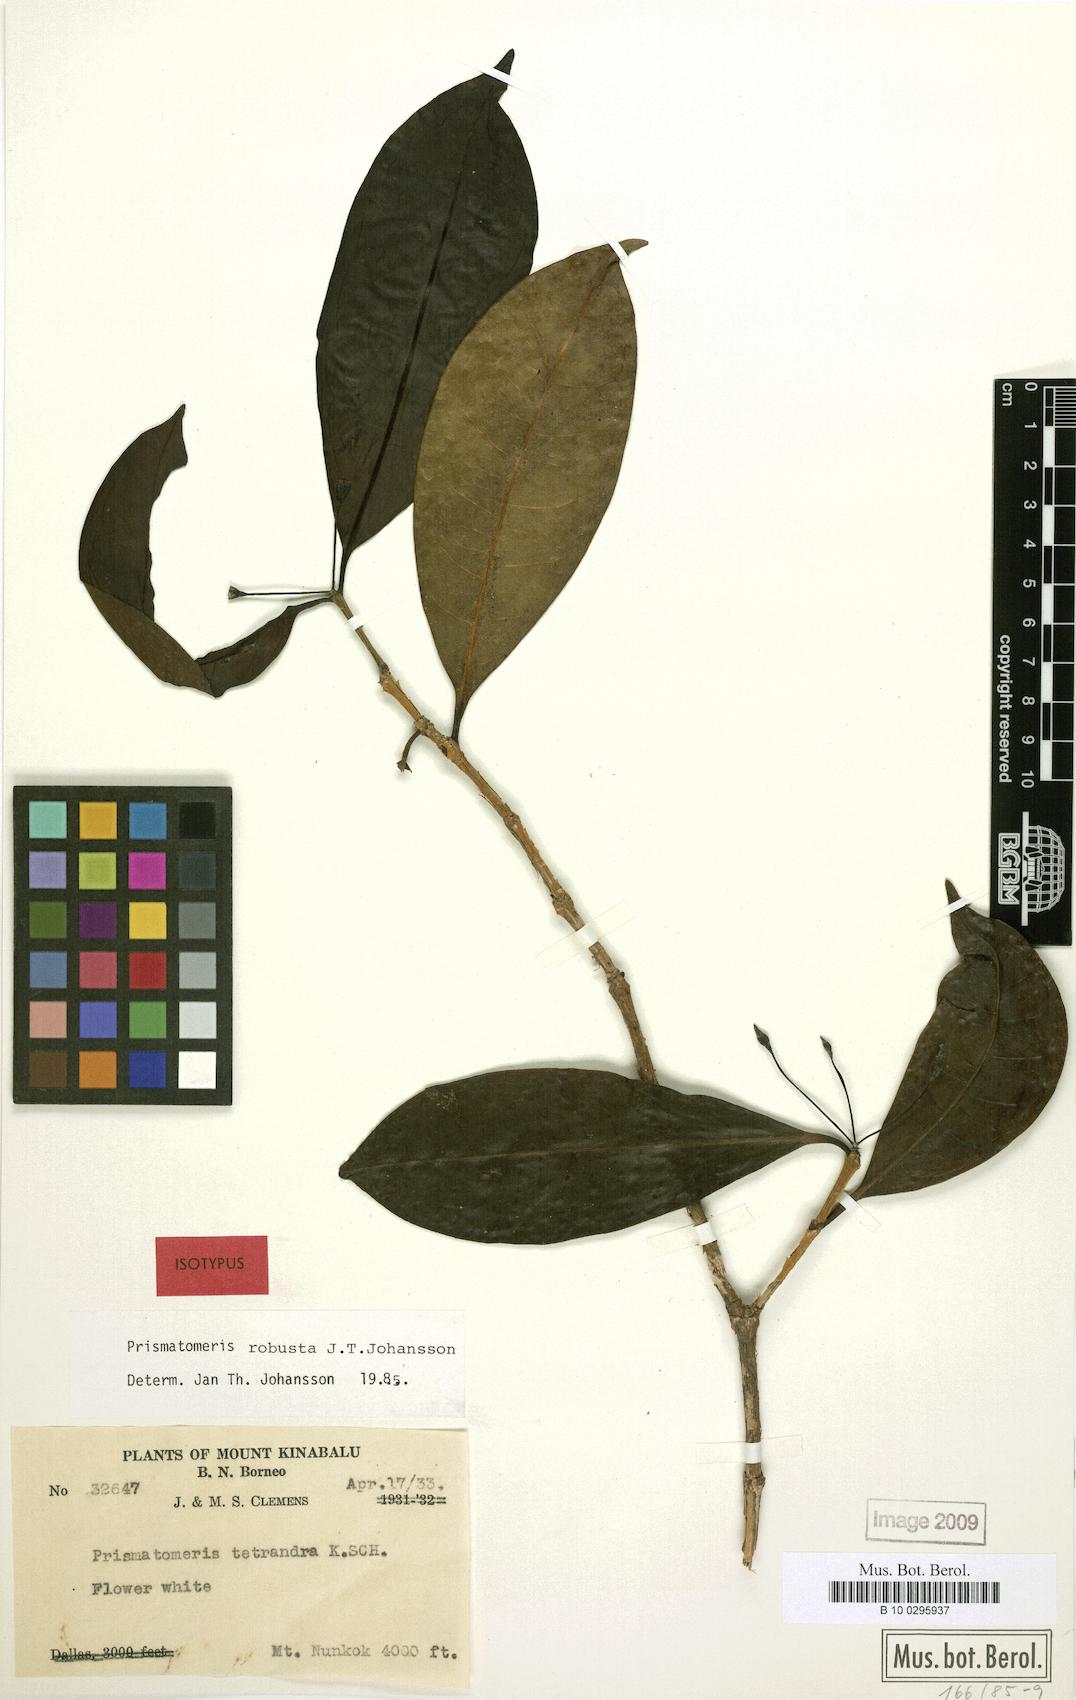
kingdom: Plantae
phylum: Tracheophyta
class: Magnoliopsida
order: Gentianales
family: Rubiaceae
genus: Prismatomeris
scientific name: Prismatomeris robusta
